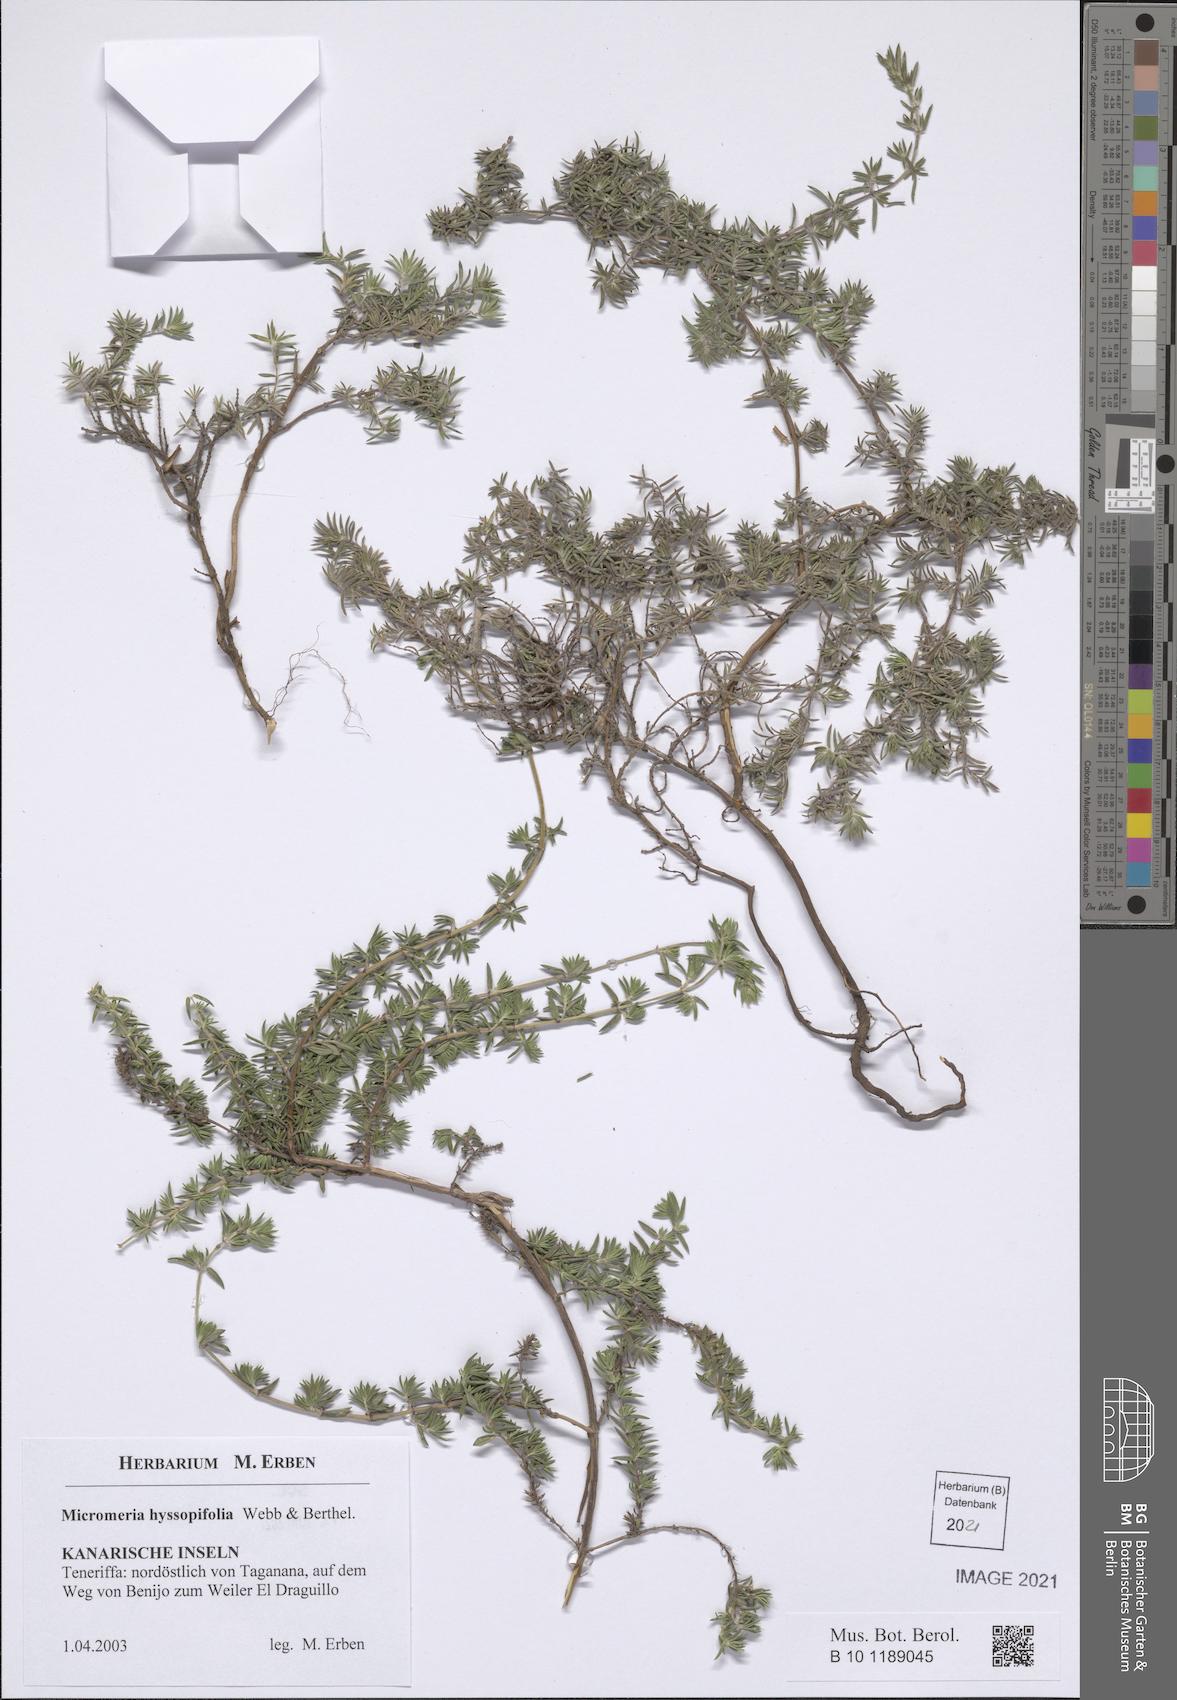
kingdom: Plantae
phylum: Tracheophyta
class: Magnoliopsida
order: Lamiales
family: Lamiaceae
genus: Micromeria
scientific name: Micromeria ericifolia
